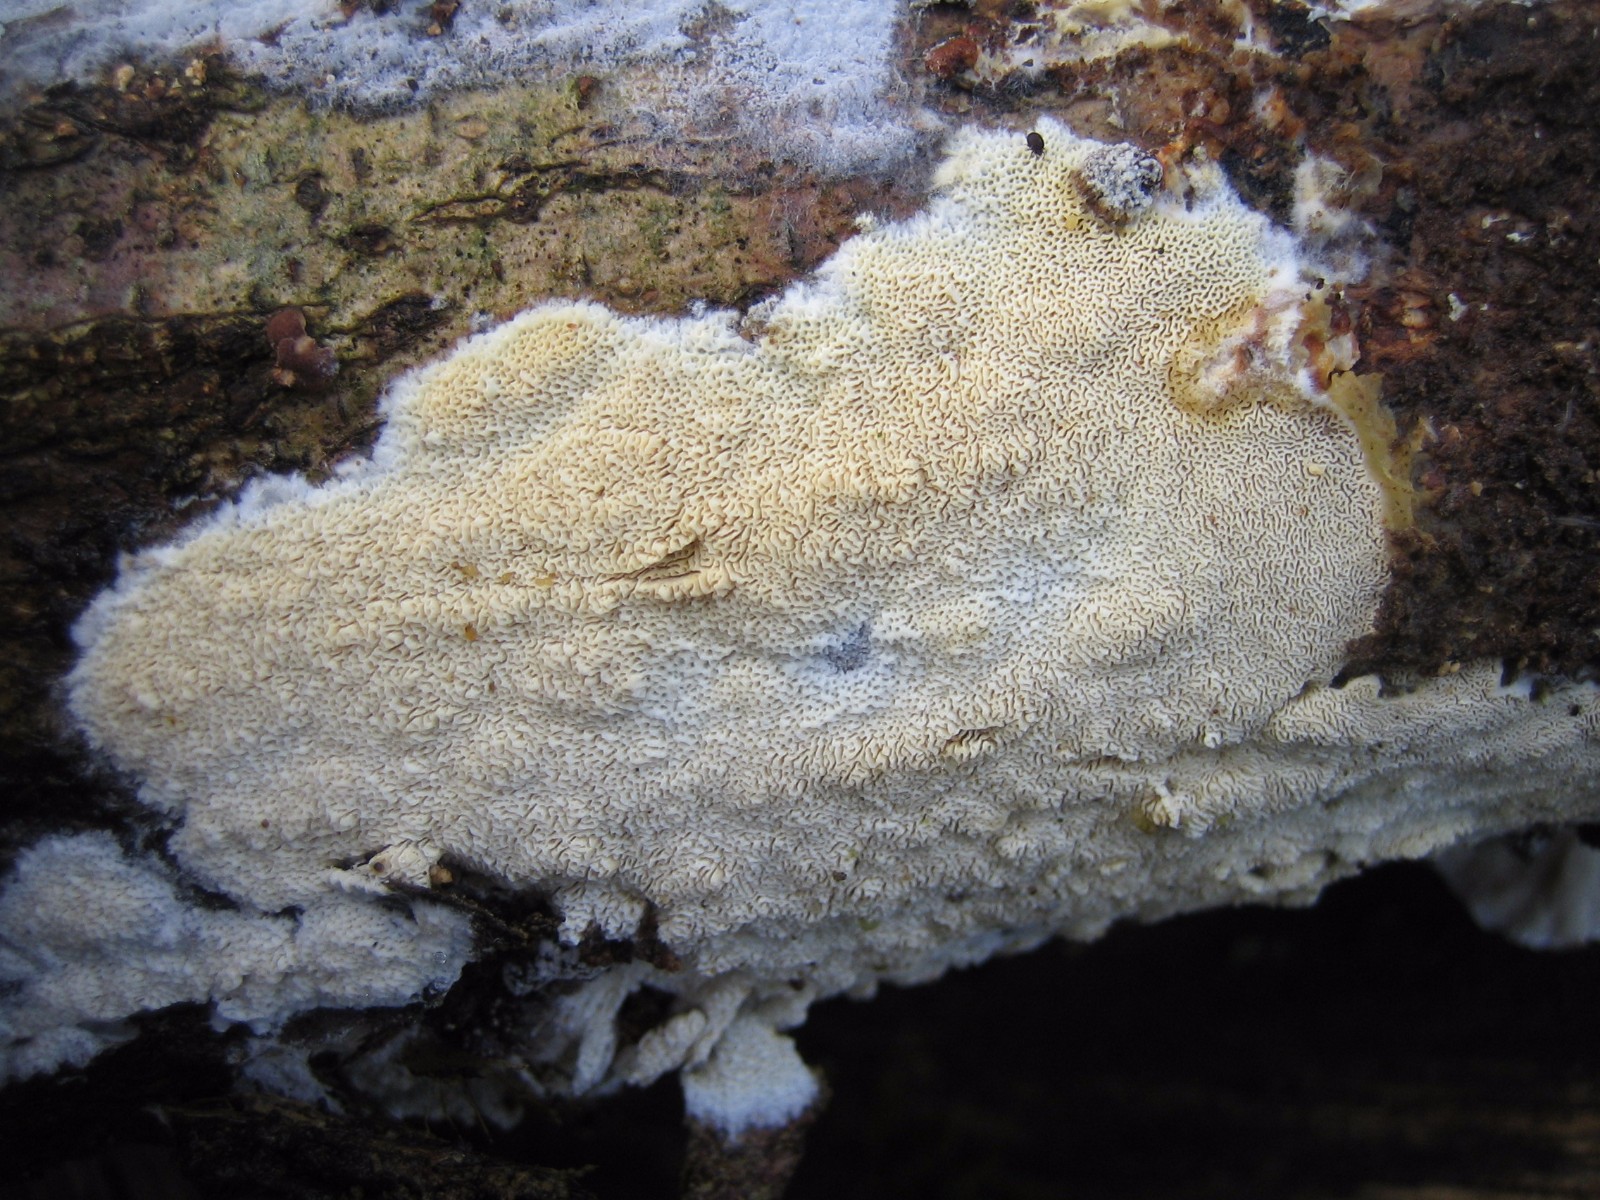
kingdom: Fungi
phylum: Basidiomycota
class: Agaricomycetes
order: Hymenochaetales
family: Schizoporaceae
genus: Xylodon
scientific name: Xylodon subtropicus
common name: labyrint-tandsvamp
